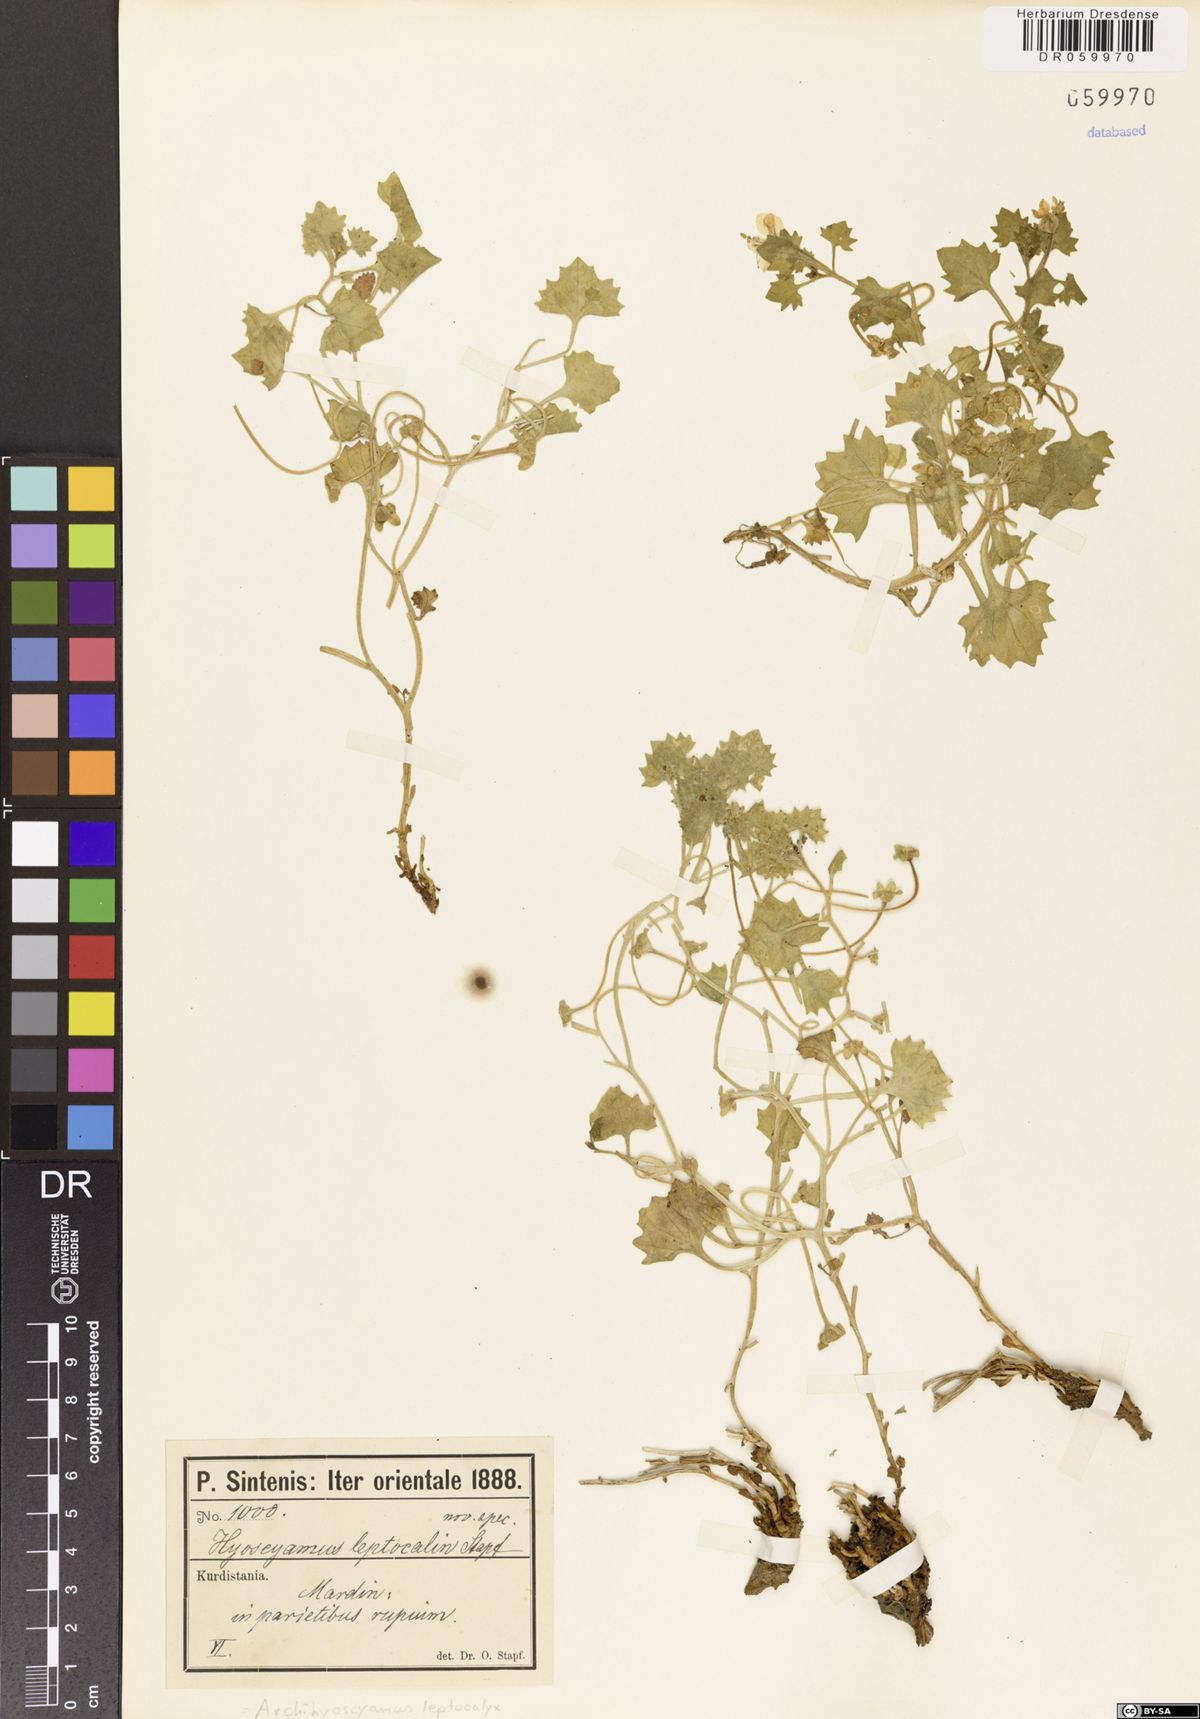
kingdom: Plantae
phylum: Tracheophyta
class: Magnoliopsida
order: Solanales
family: Solanaceae
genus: Hyoscyamus
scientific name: Hyoscyamus leptocalyx
